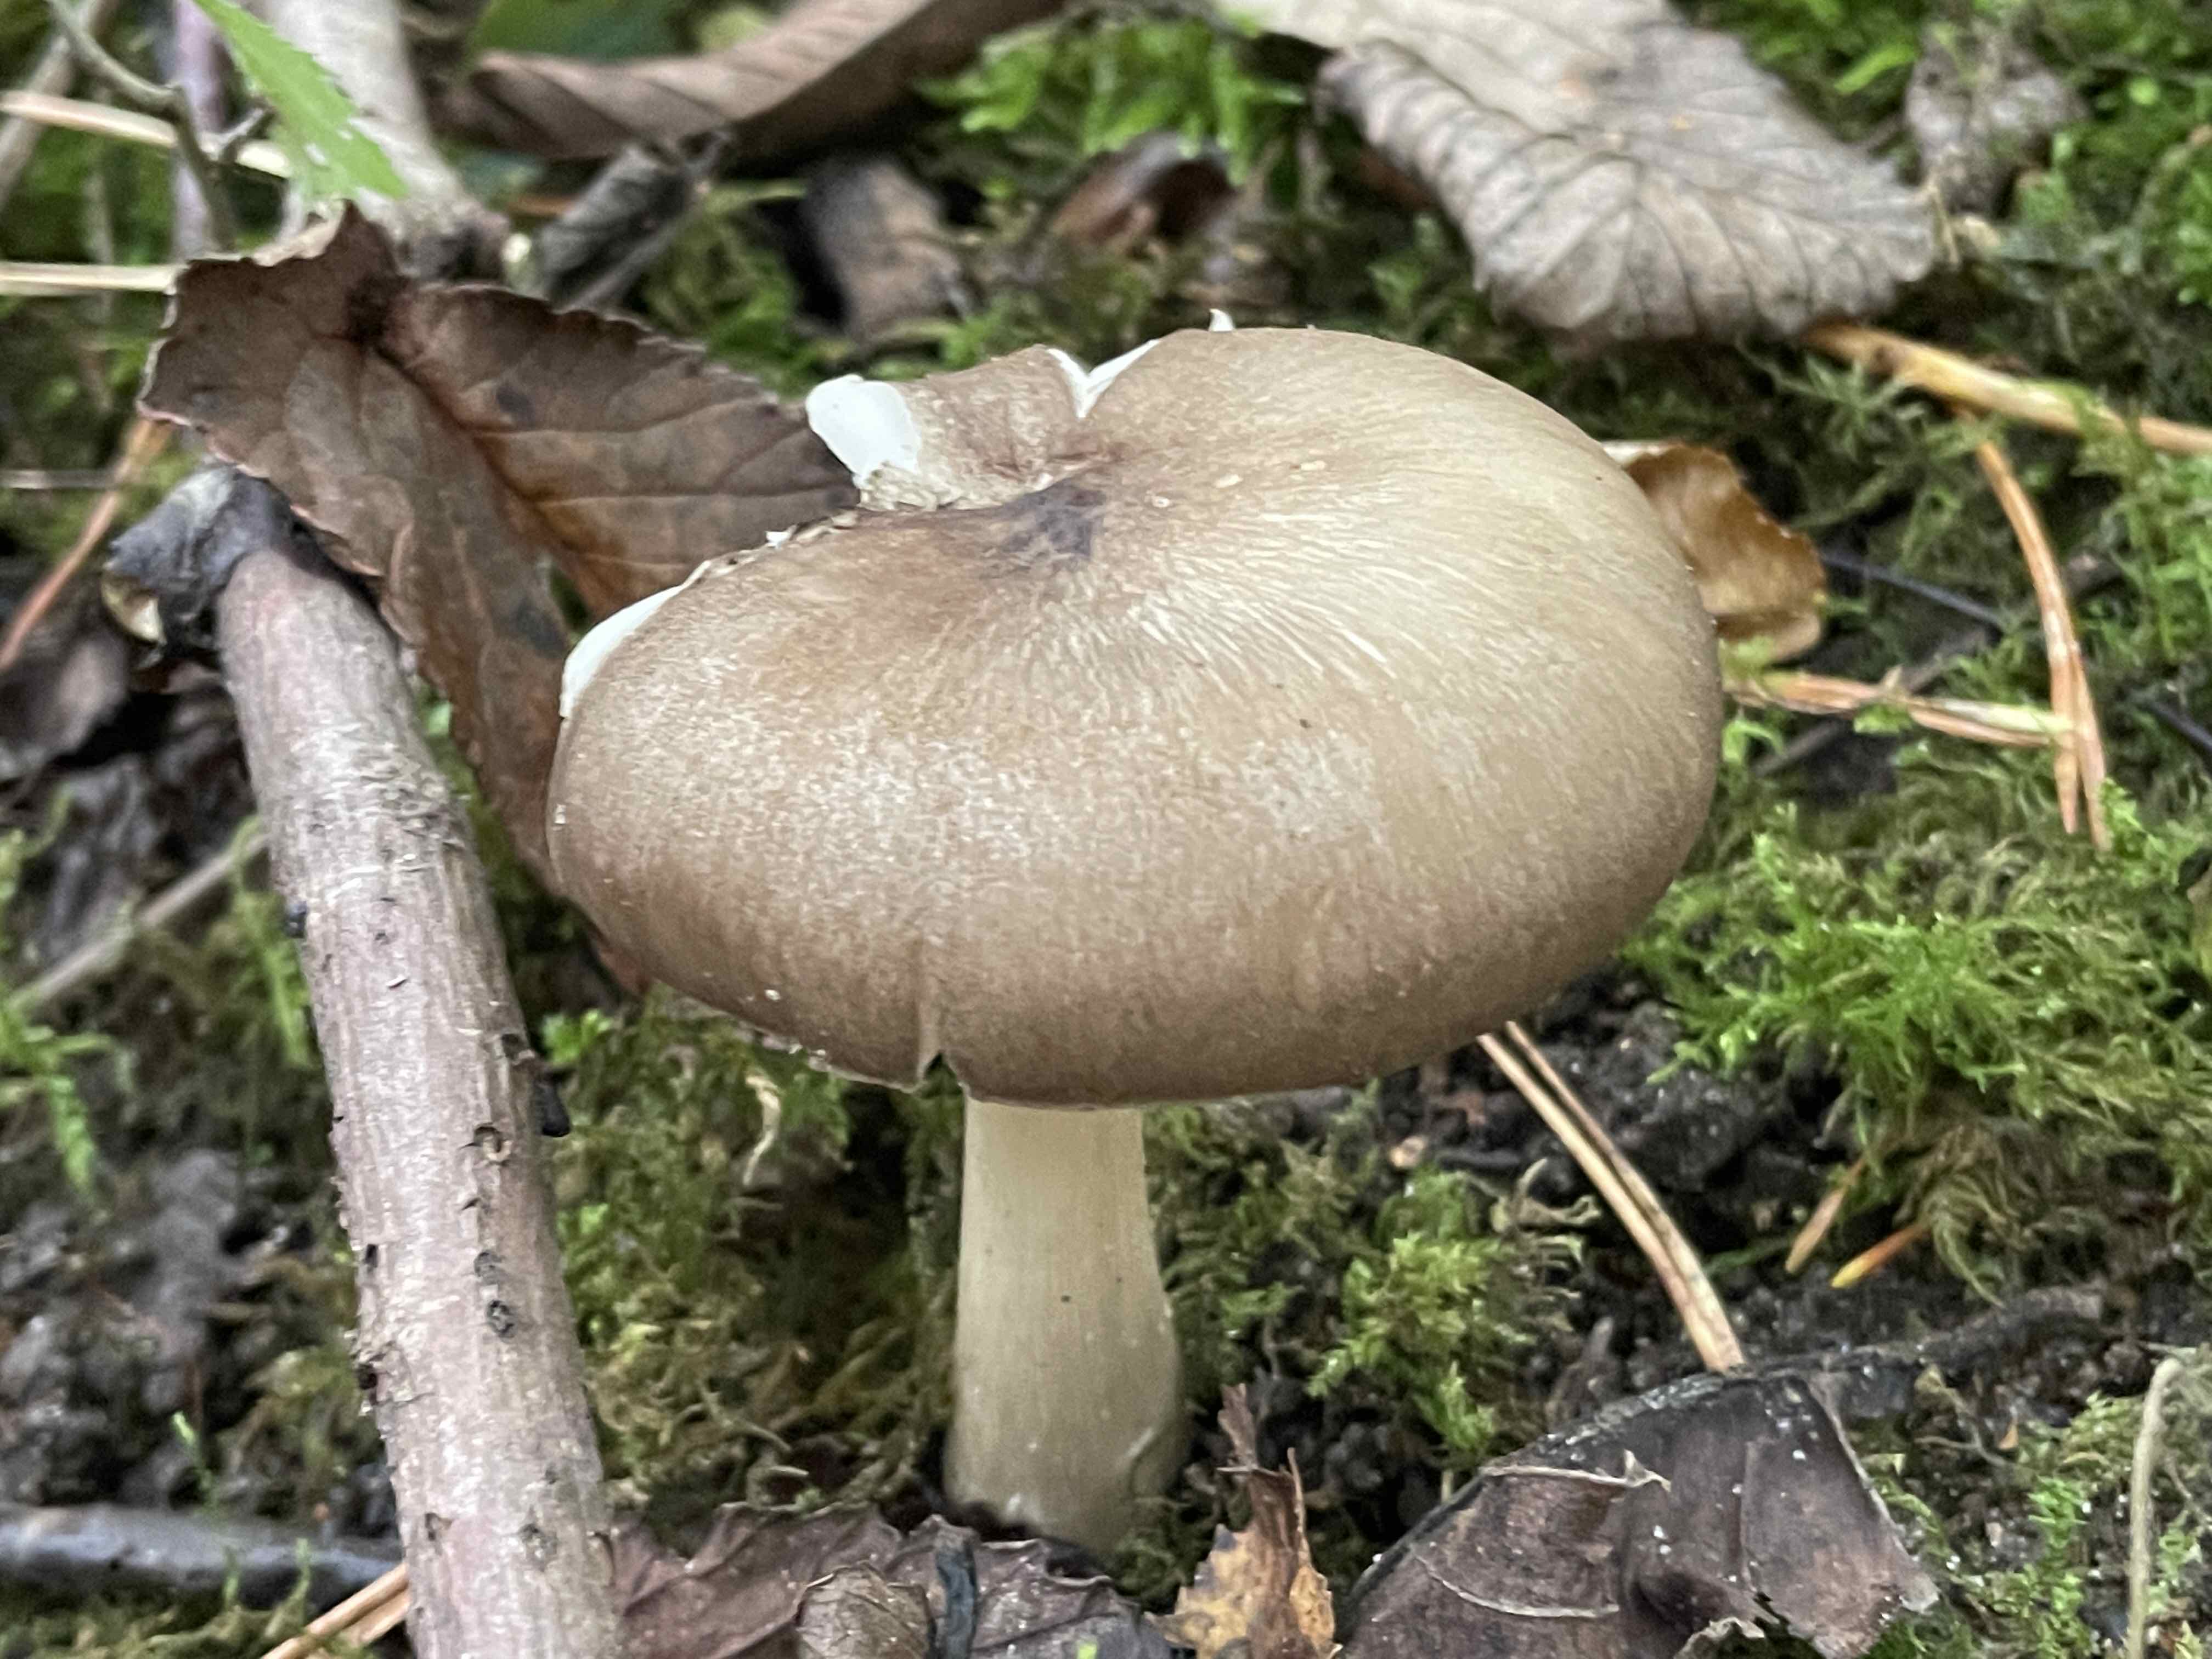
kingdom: Fungi
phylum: Basidiomycota
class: Agaricomycetes
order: Agaricales
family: Tricholomataceae
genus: Megacollybia
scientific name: Megacollybia platyphylla
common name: bredbladet væbnerhat
